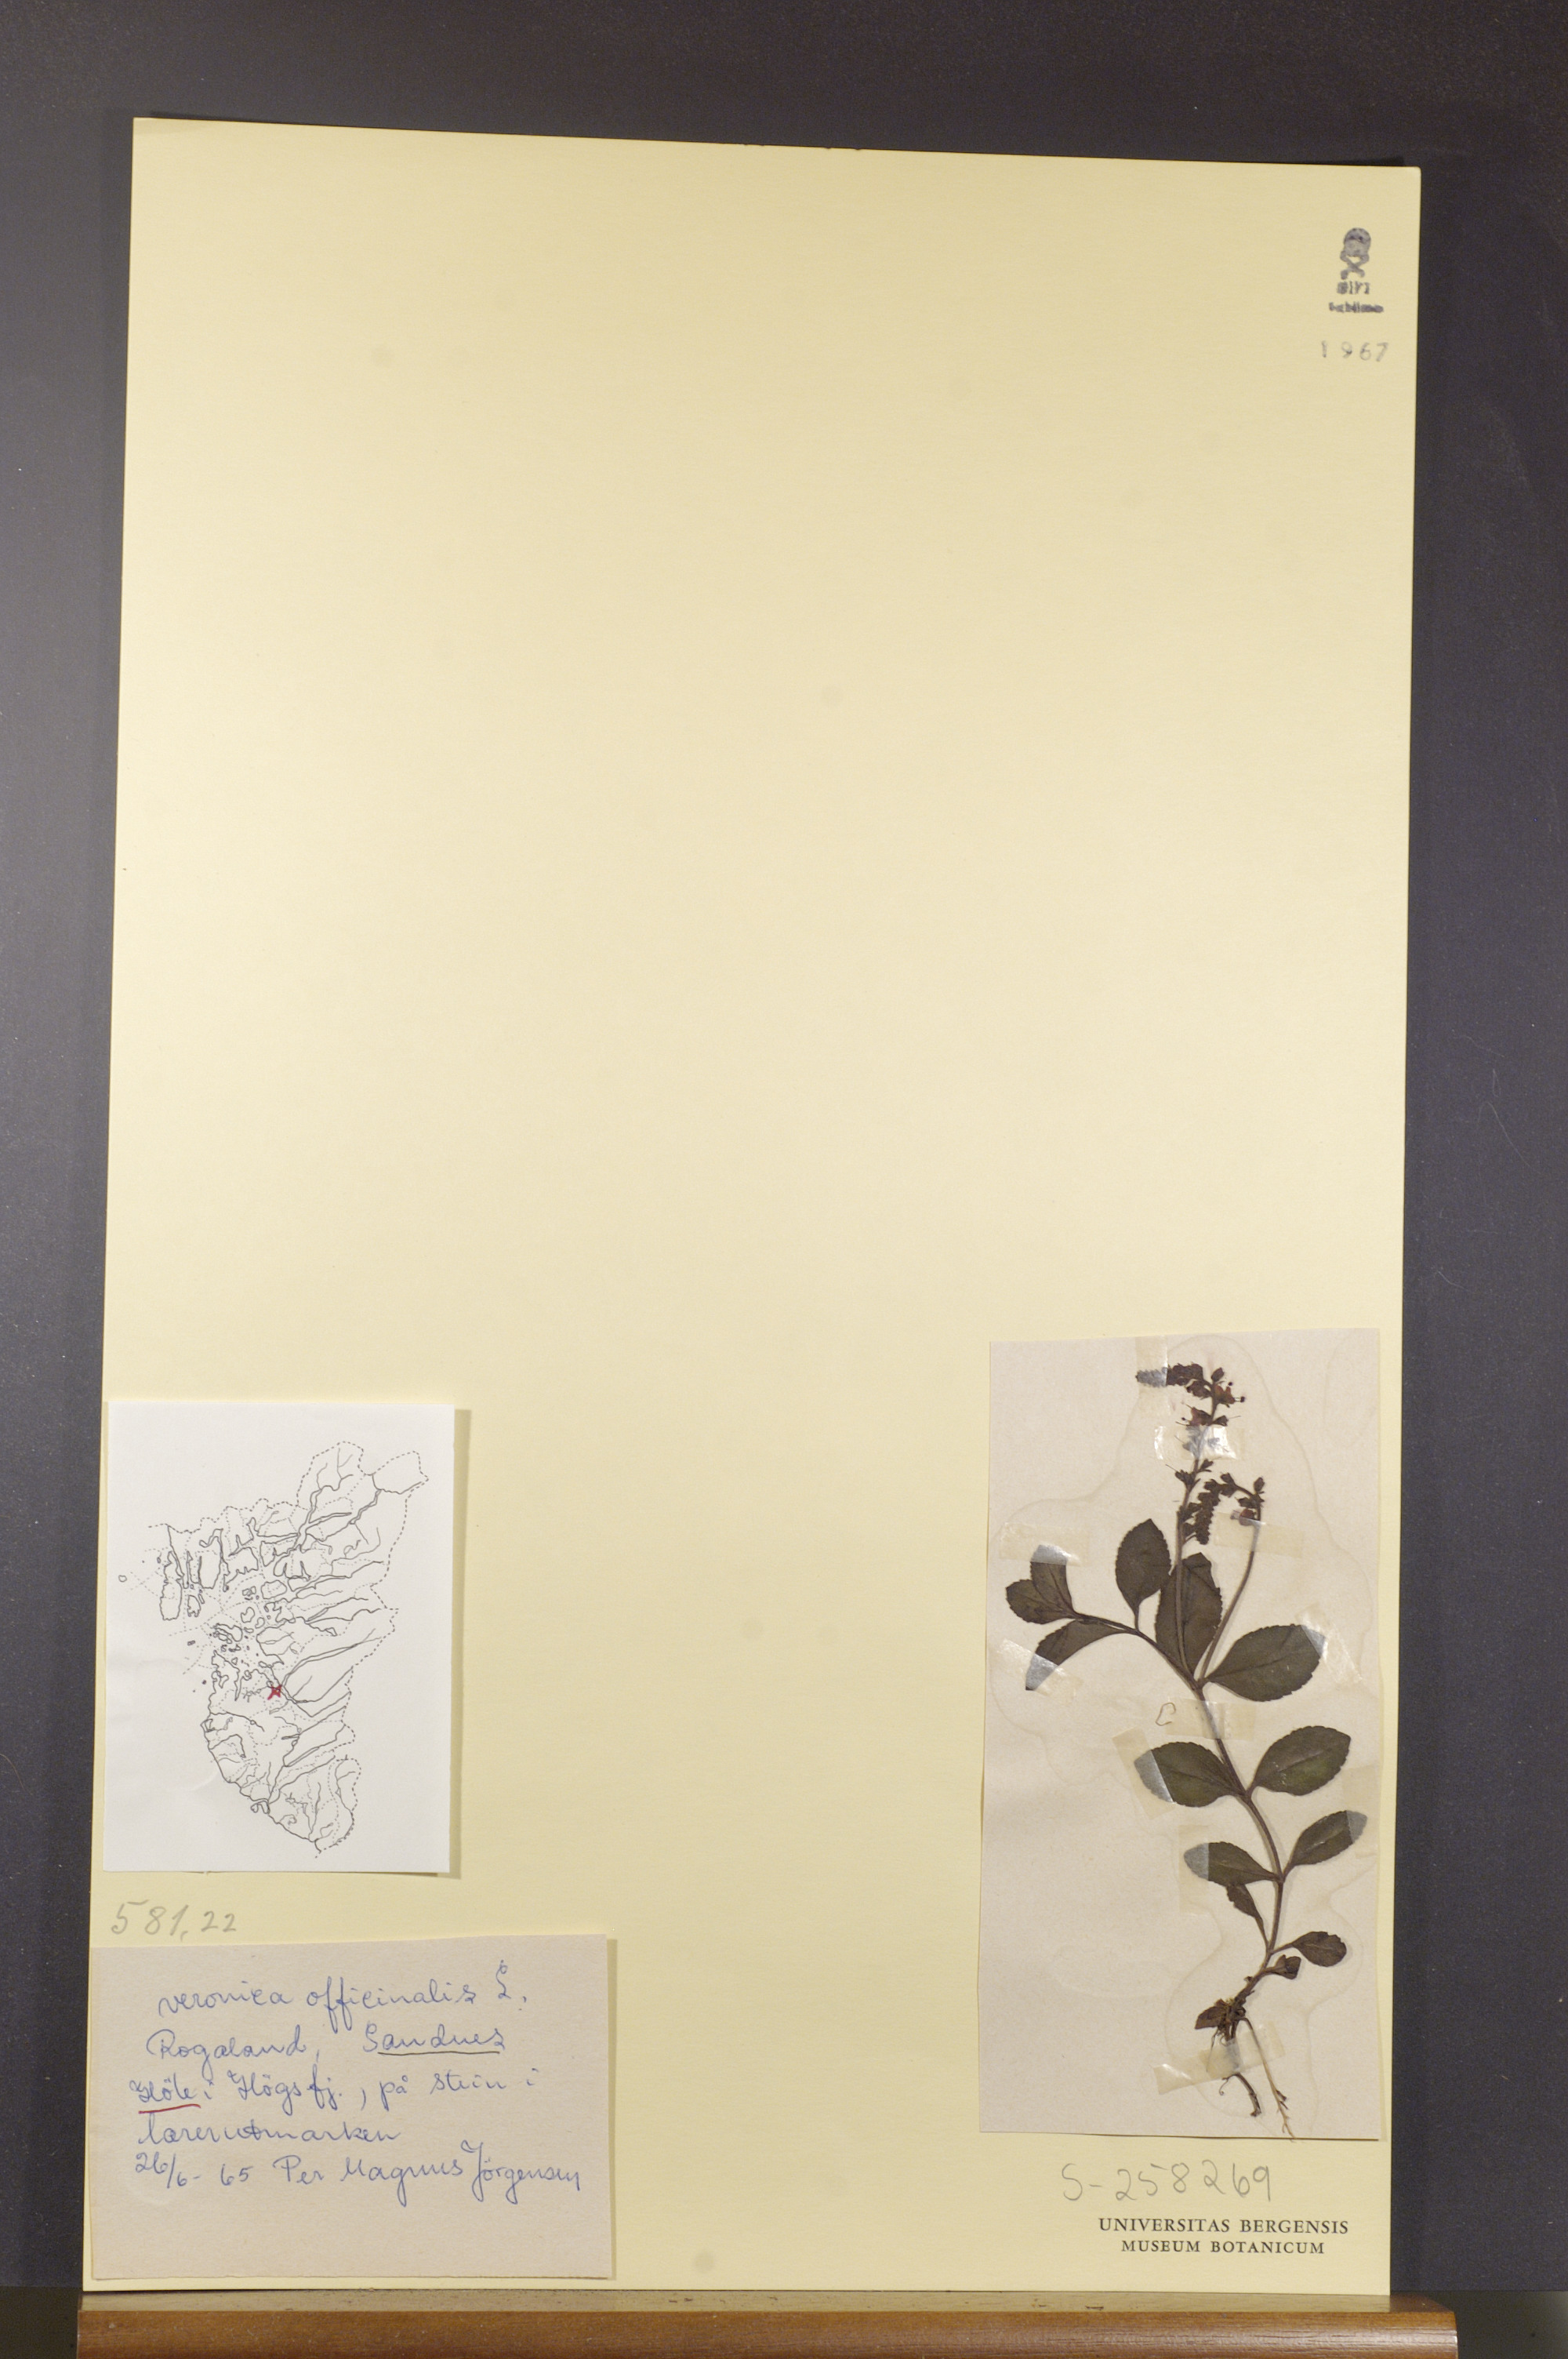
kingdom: Plantae
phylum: Tracheophyta
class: Magnoliopsida
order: Lamiales
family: Plantaginaceae
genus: Veronica
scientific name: Veronica officinalis
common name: Common speedwell
